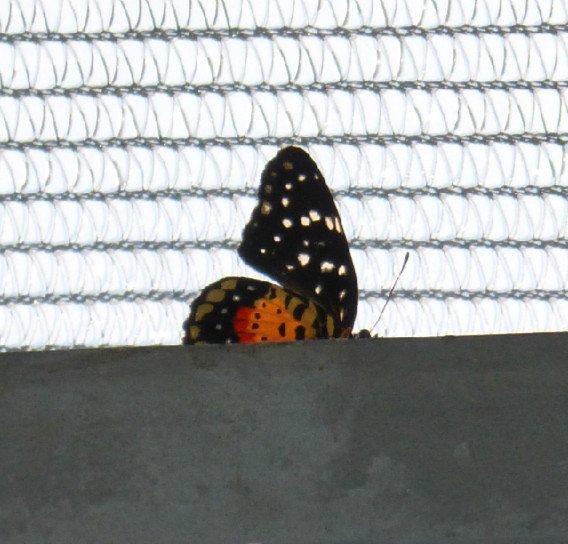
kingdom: Animalia
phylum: Arthropoda
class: Insecta
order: Lepidoptera
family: Nymphalidae
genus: Chlosyne
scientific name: Chlosyne janais
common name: Crimson Patch
